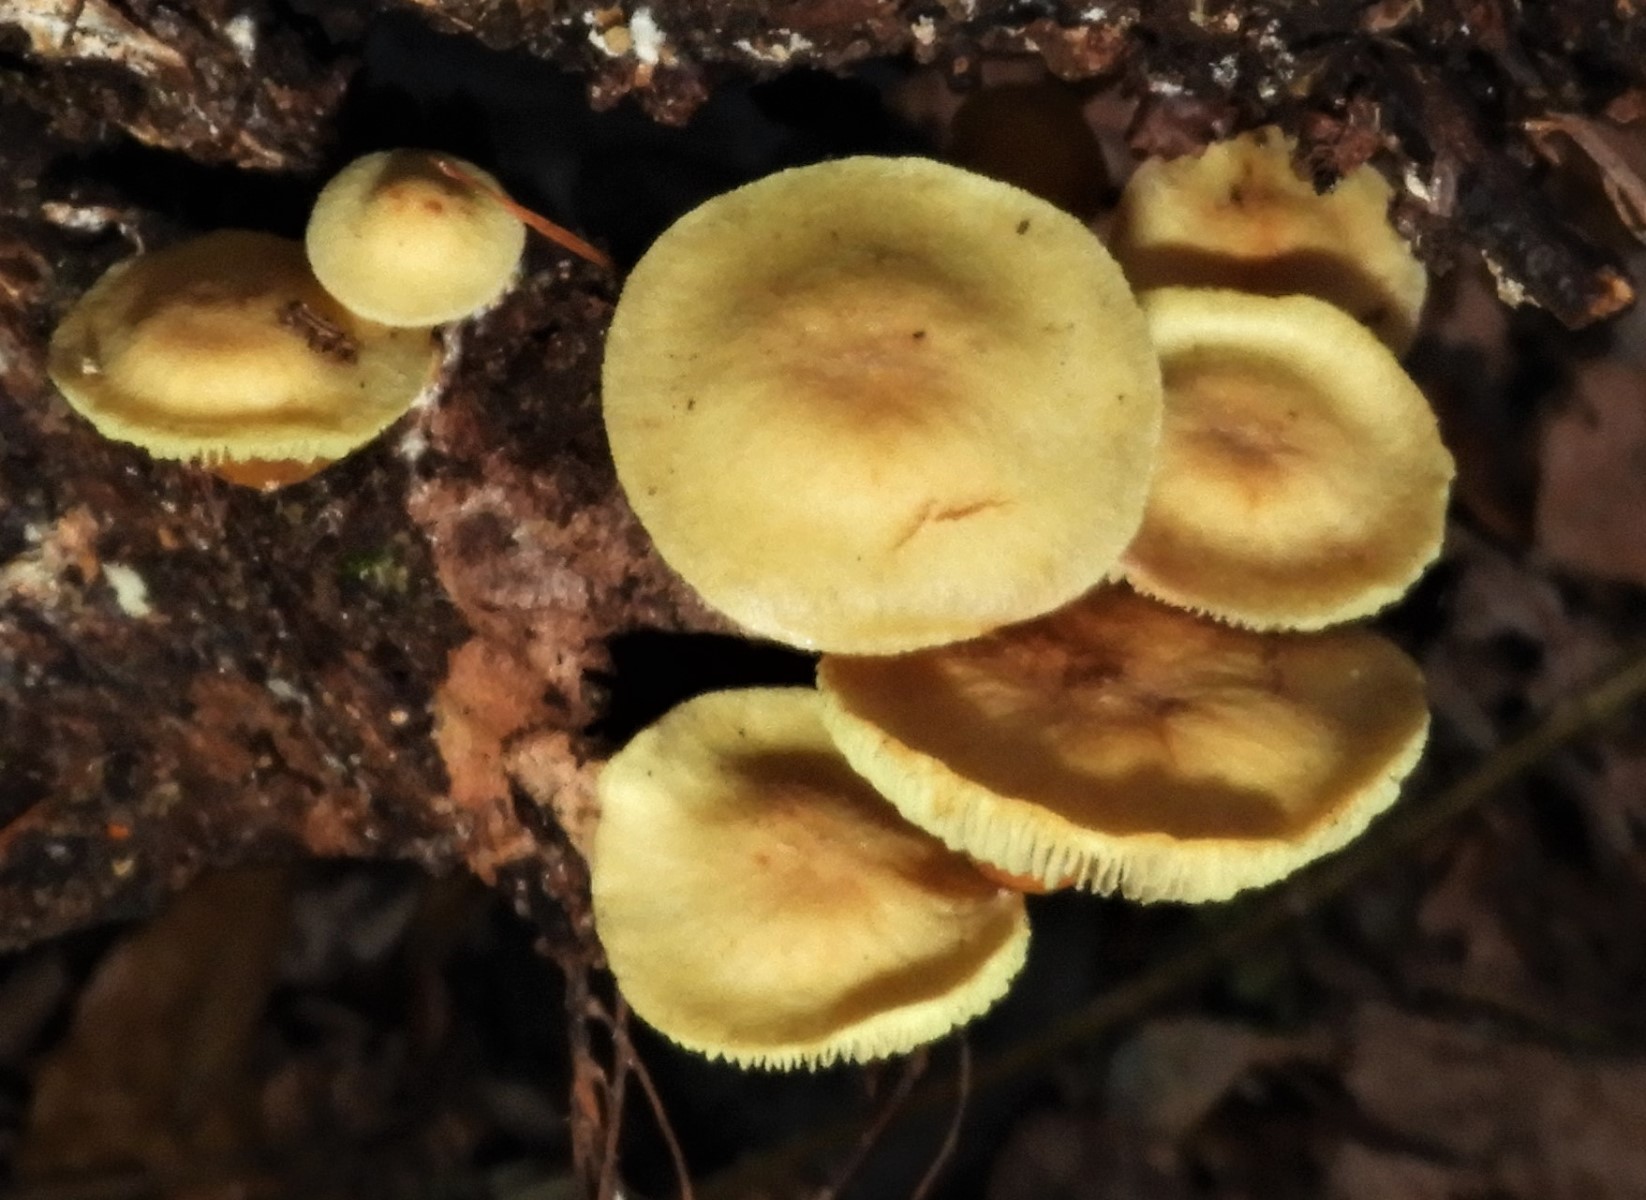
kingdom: Fungi
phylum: Basidiomycota
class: Agaricomycetes
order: Agaricales
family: Strophariaceae
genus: Hypholoma
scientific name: Hypholoma fasciculare
